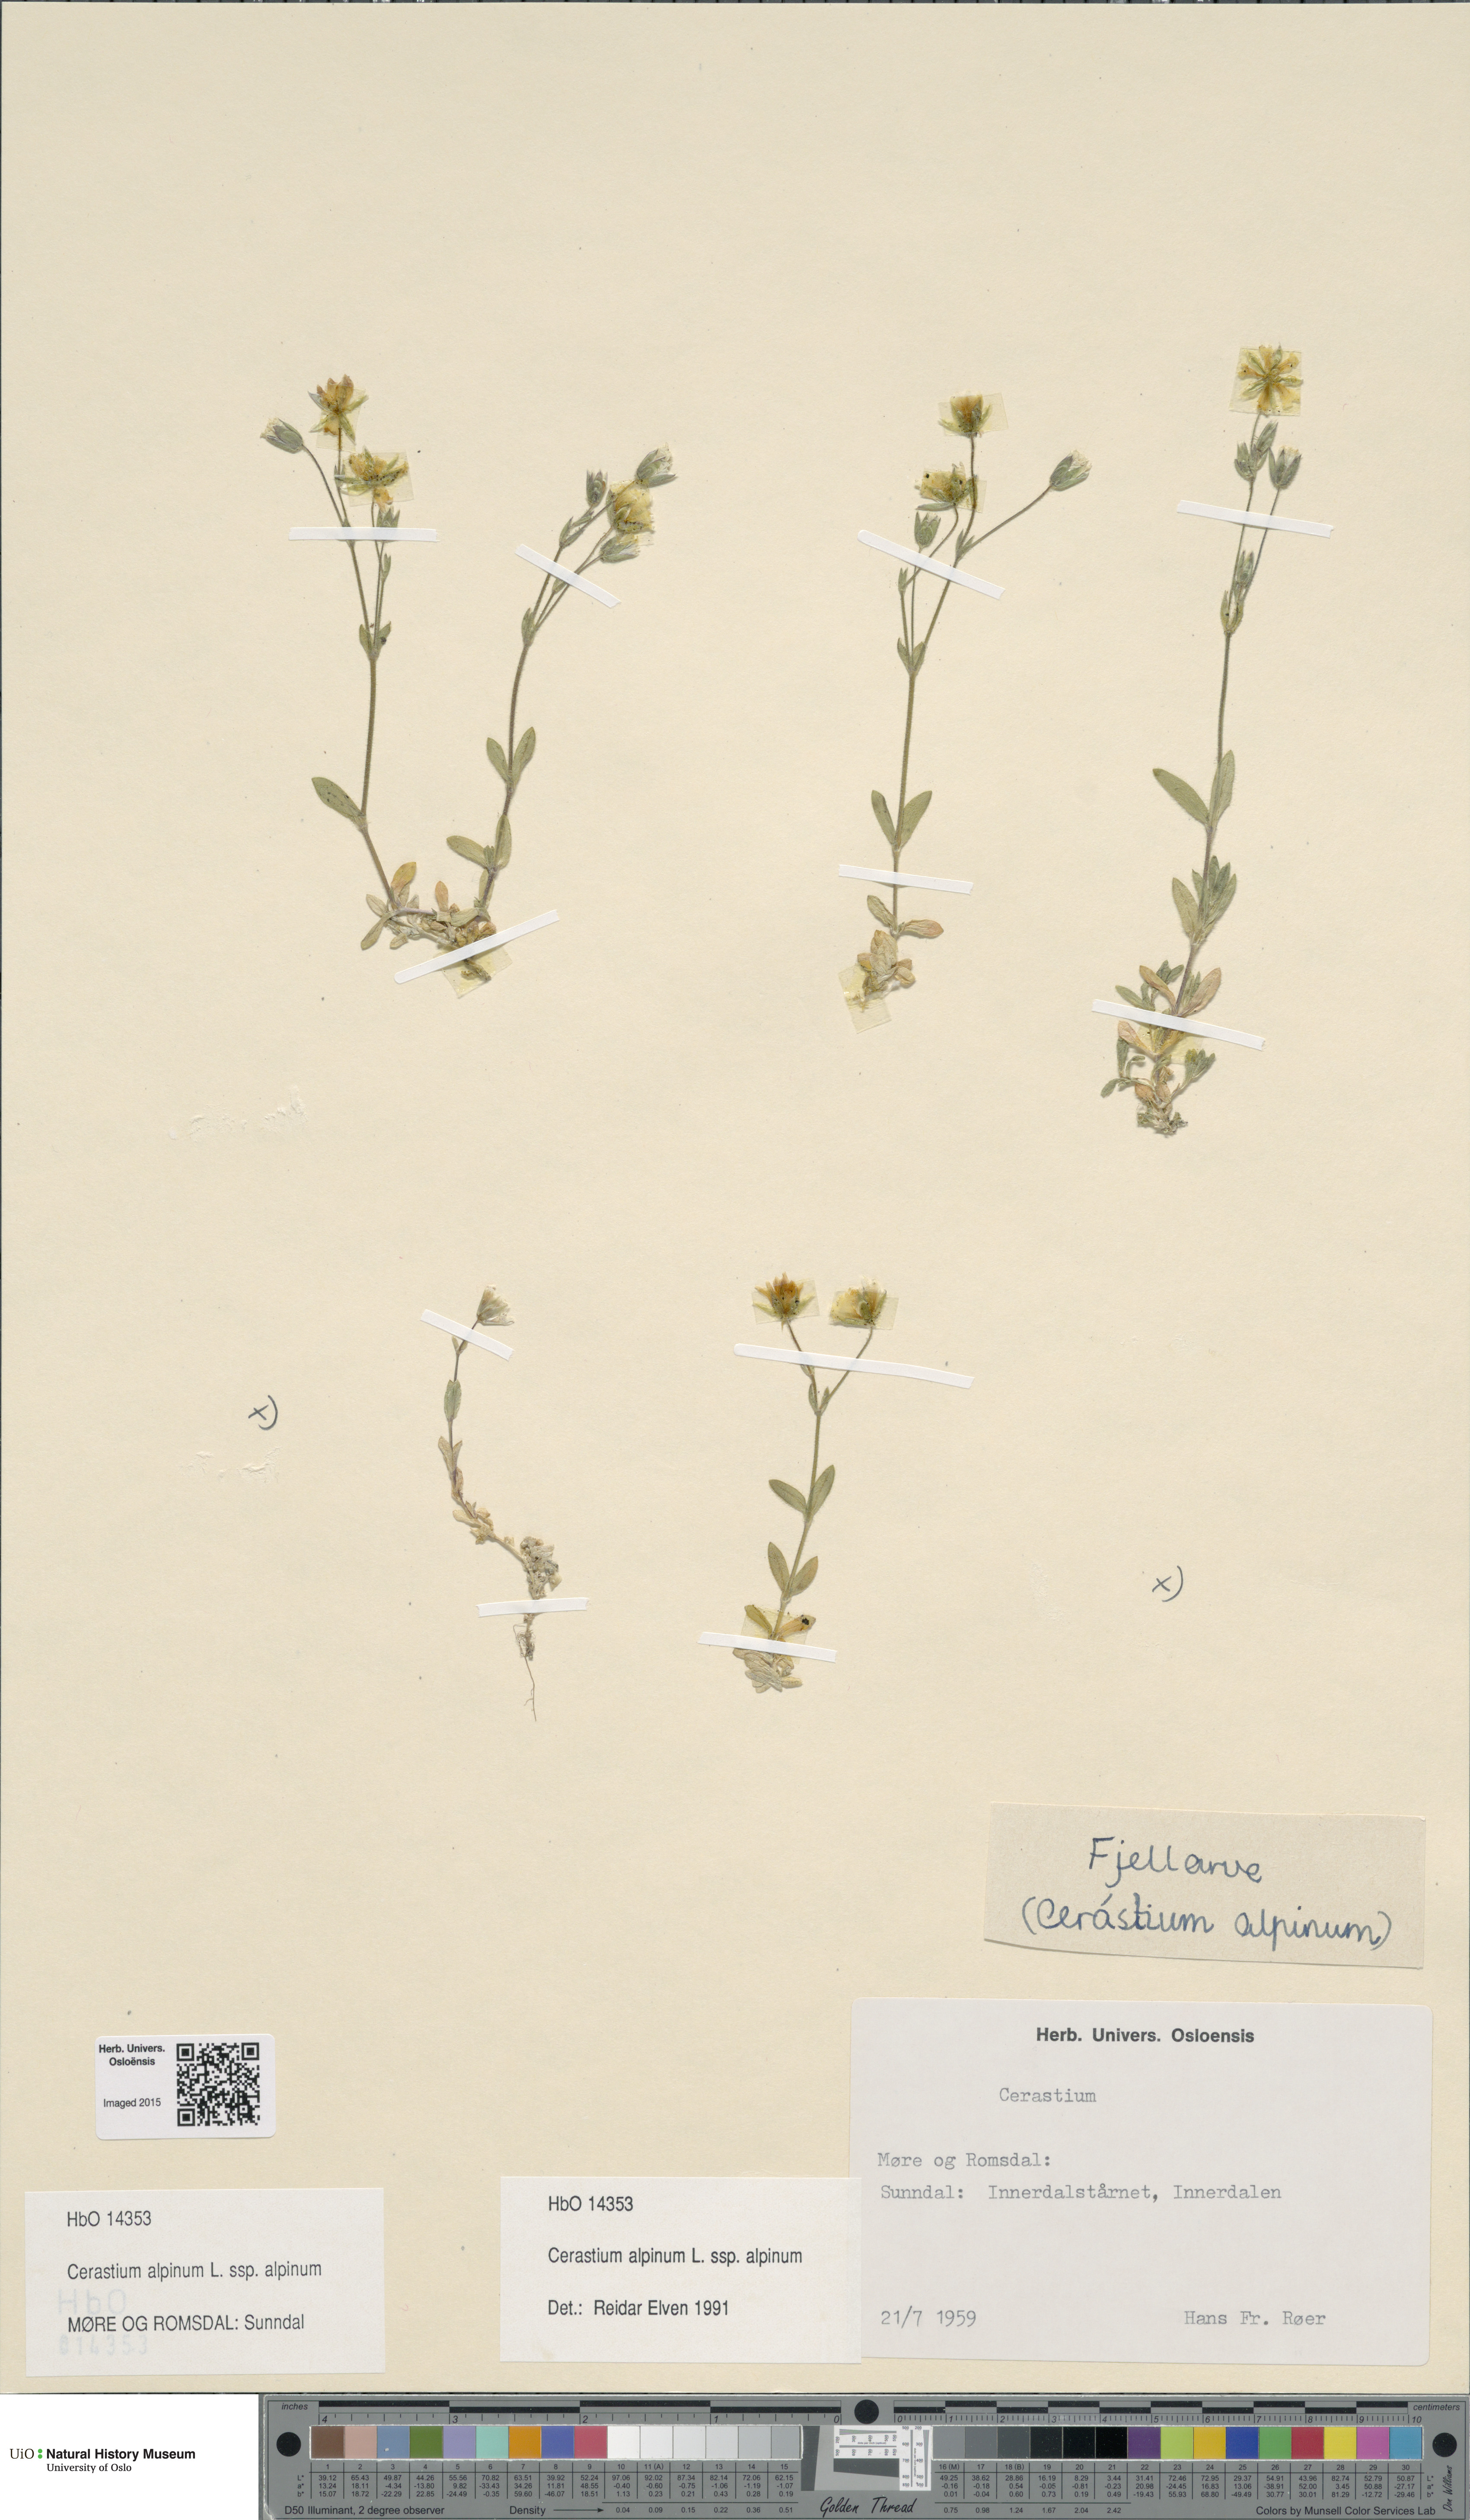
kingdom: Plantae
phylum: Tracheophyta
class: Magnoliopsida
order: Caryophyllales
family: Caryophyllaceae
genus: Cerastium
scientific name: Cerastium alpinum
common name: Alpine mouse-ear
